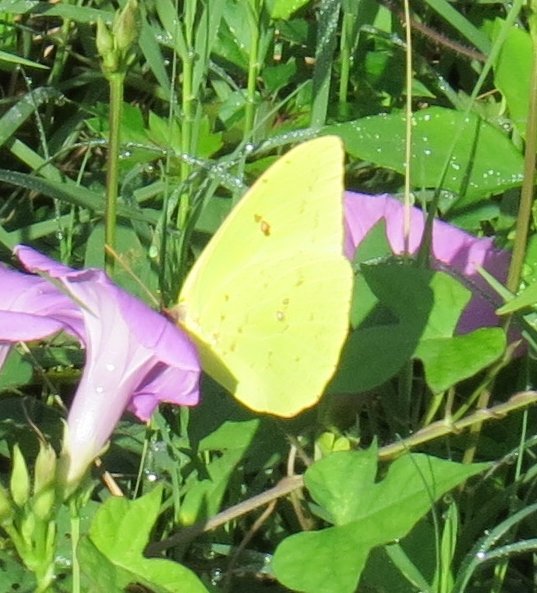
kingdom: Animalia
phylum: Arthropoda
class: Insecta
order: Lepidoptera
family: Pieridae
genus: Phoebis
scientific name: Phoebis sennae
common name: Cloudless Sulphur
